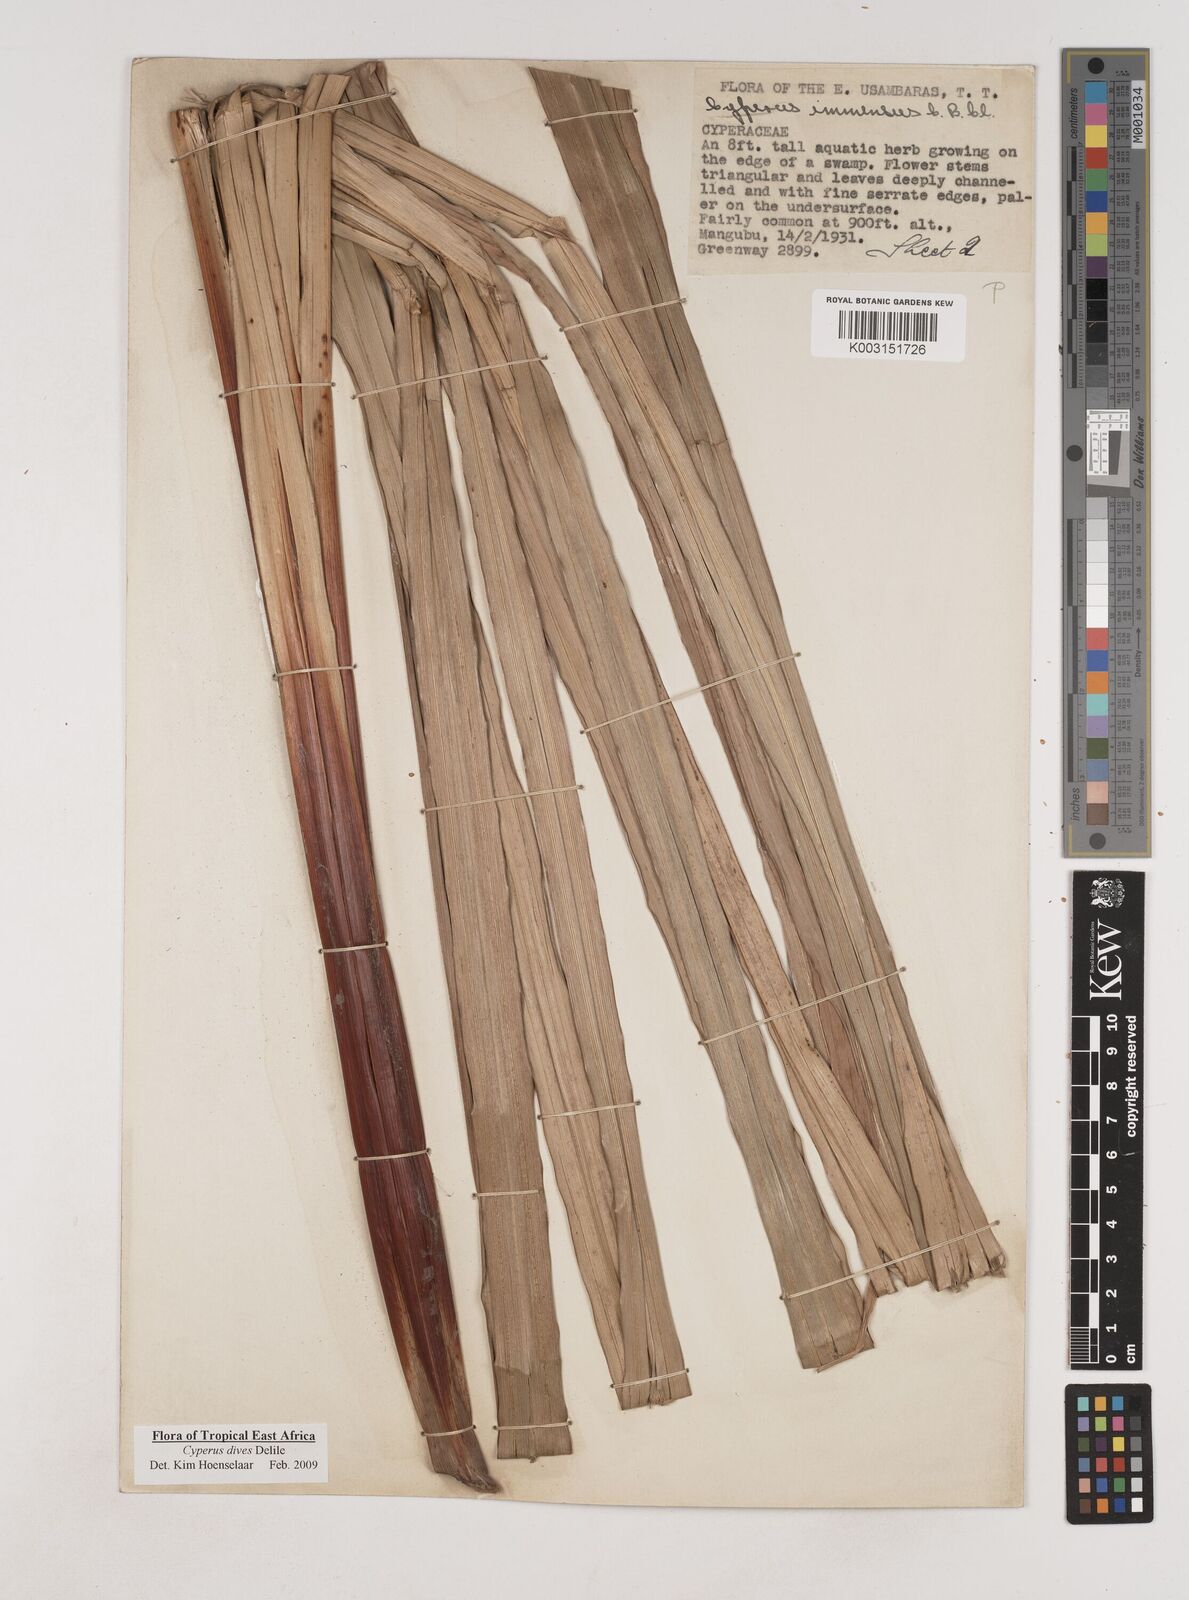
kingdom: Plantae
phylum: Tracheophyta
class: Liliopsida
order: Poales
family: Cyperaceae
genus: Cyperus
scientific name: Cyperus dives
